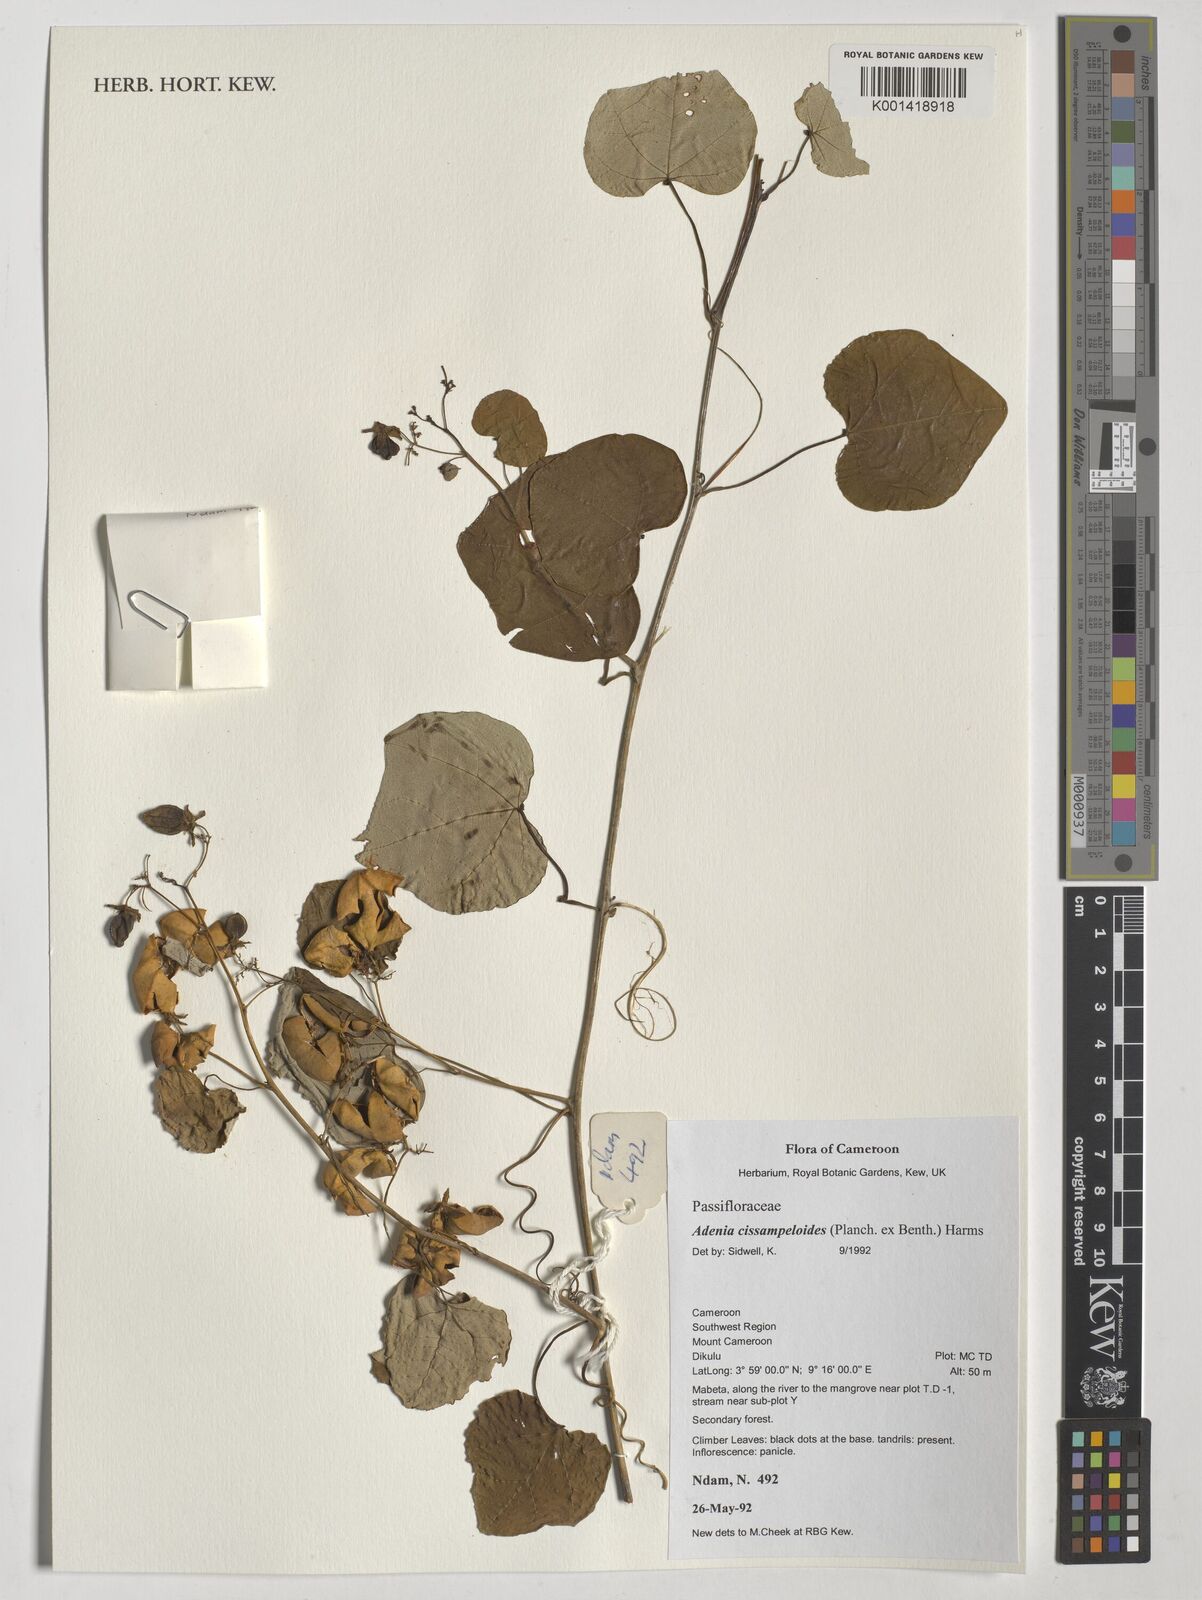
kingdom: Plantae
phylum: Tracheophyta
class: Magnoliopsida
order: Malpighiales
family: Passifloraceae
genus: Adenia
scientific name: Adenia cissampeloides
